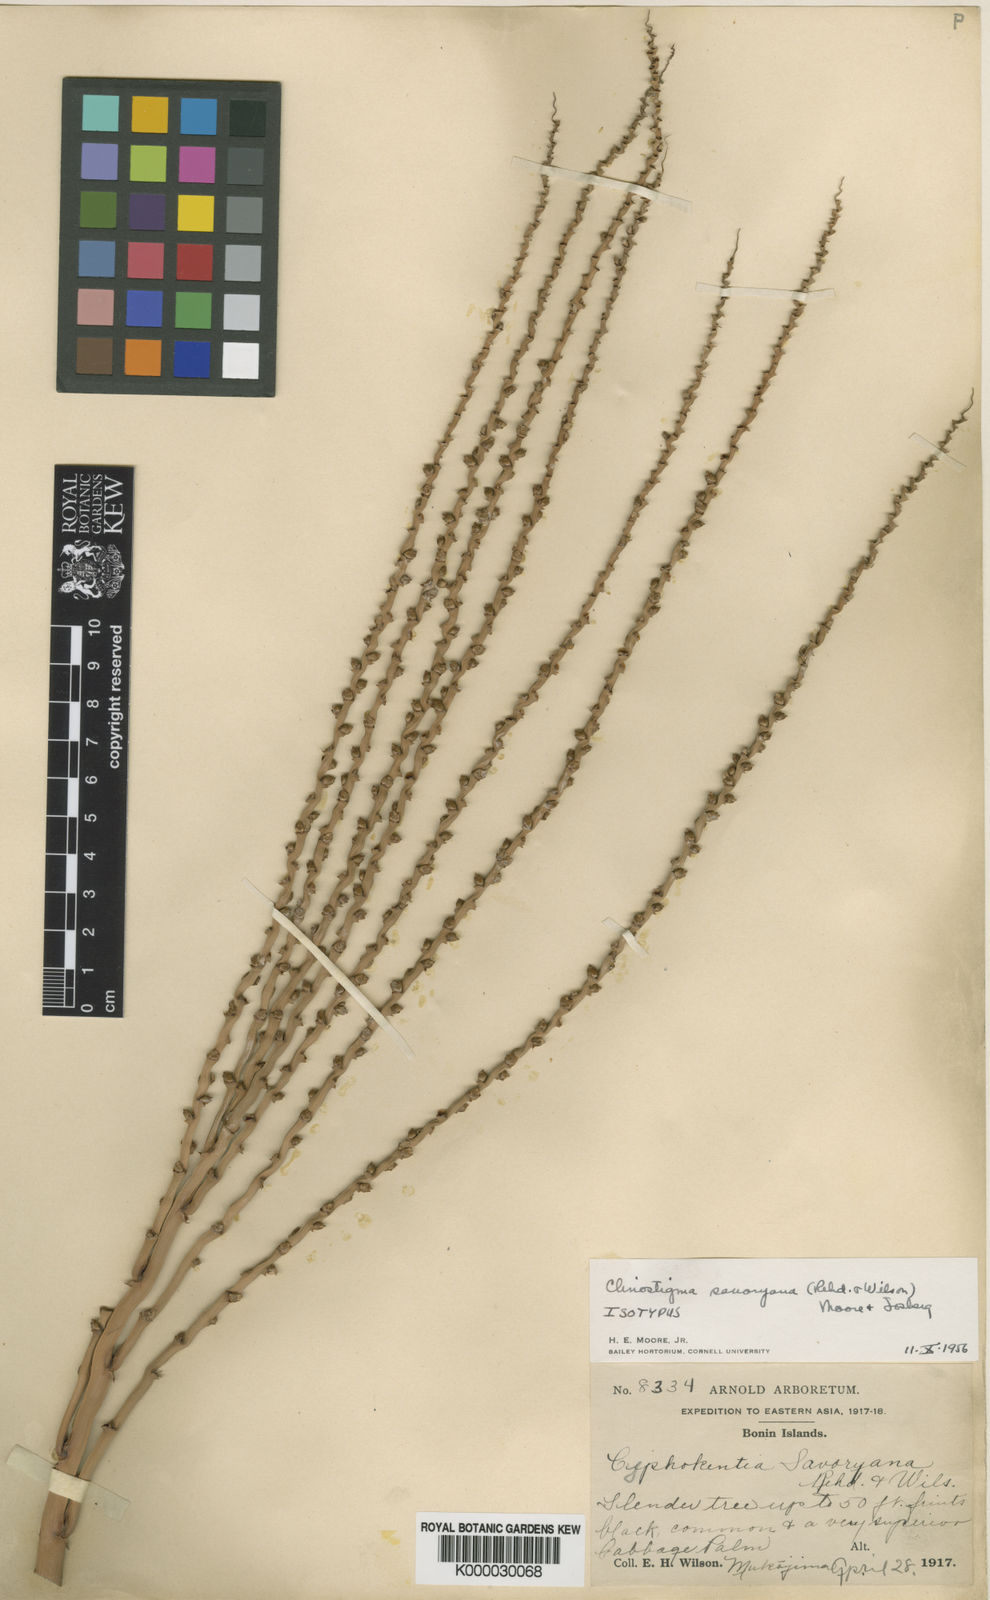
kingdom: Plantae
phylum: Tracheophyta
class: Liliopsida
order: Arecales
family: Arecaceae
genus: Clinostigma
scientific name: Clinostigma savoryanum
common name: Arrack tree
